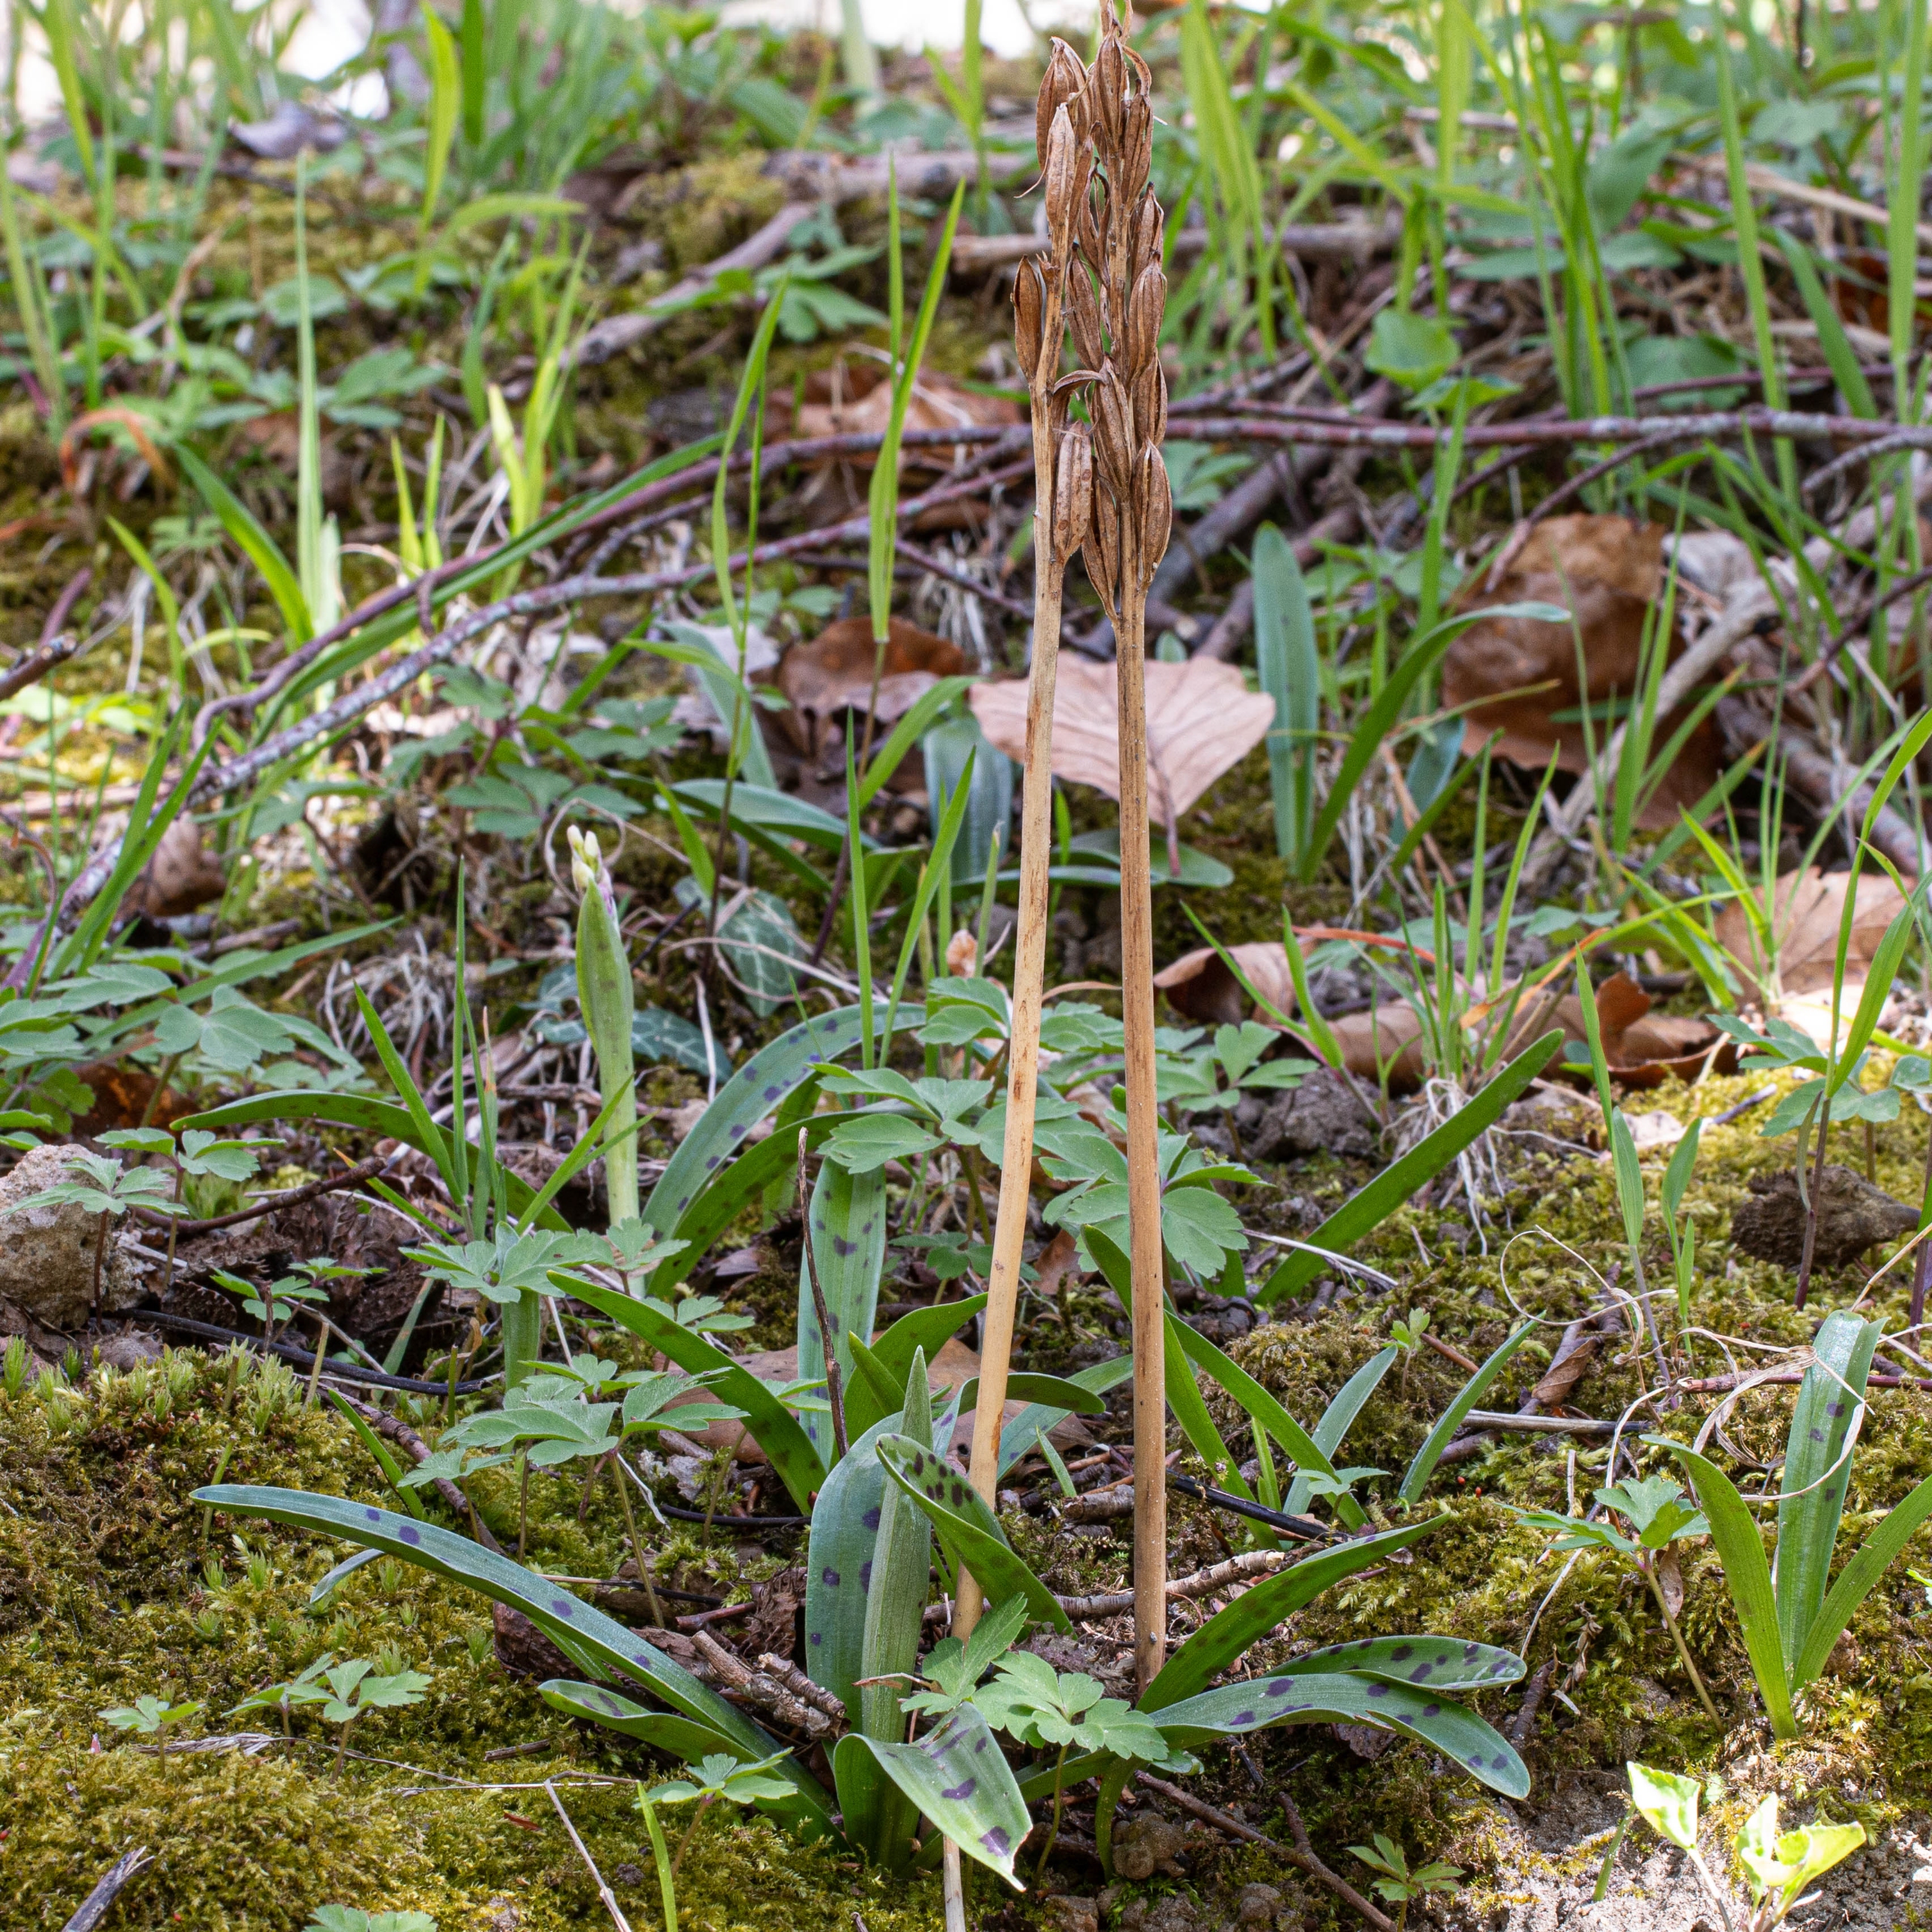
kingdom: Plantae
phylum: Tracheophyta
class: Liliopsida
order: Asparagales
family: Orchidaceae
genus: Orchis
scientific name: Orchis mascula
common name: Tyndakset gøgeurt
